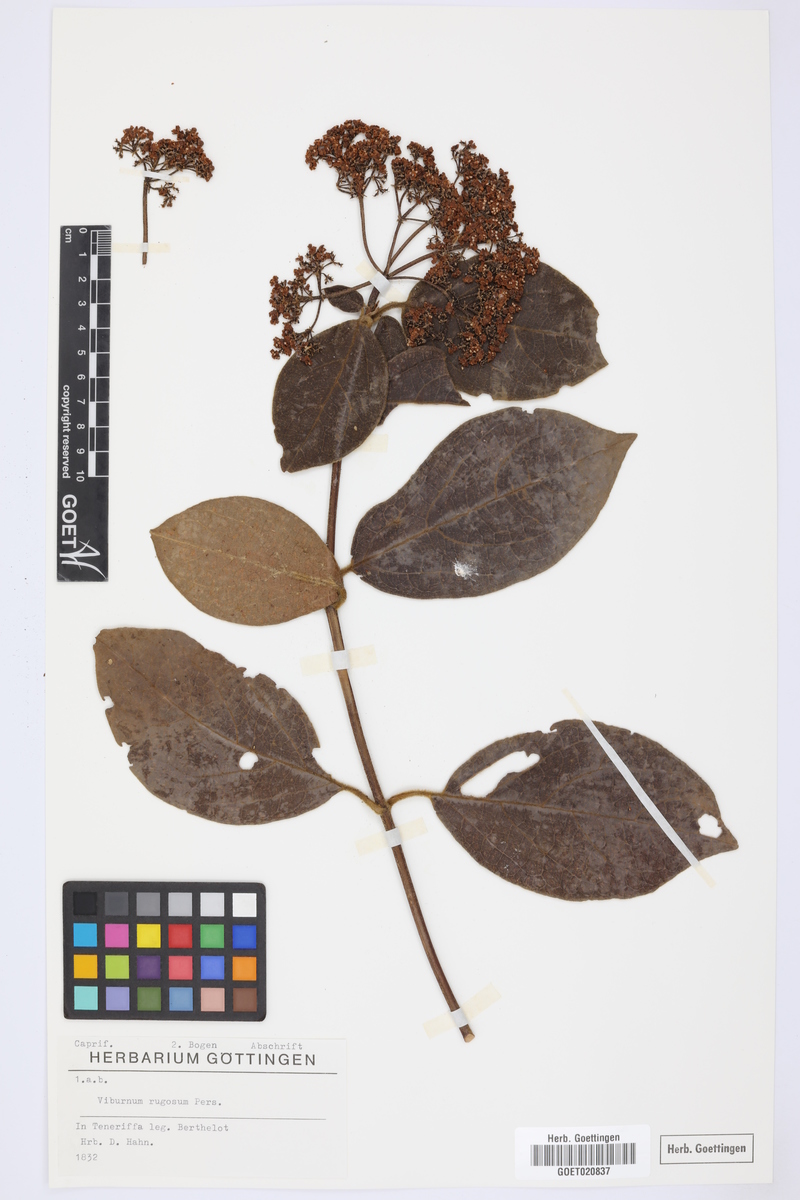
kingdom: Plantae
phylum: Tracheophyta
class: Magnoliopsida
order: Dipsacales
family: Viburnaceae
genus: Viburnum
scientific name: Viburnum rugosum
